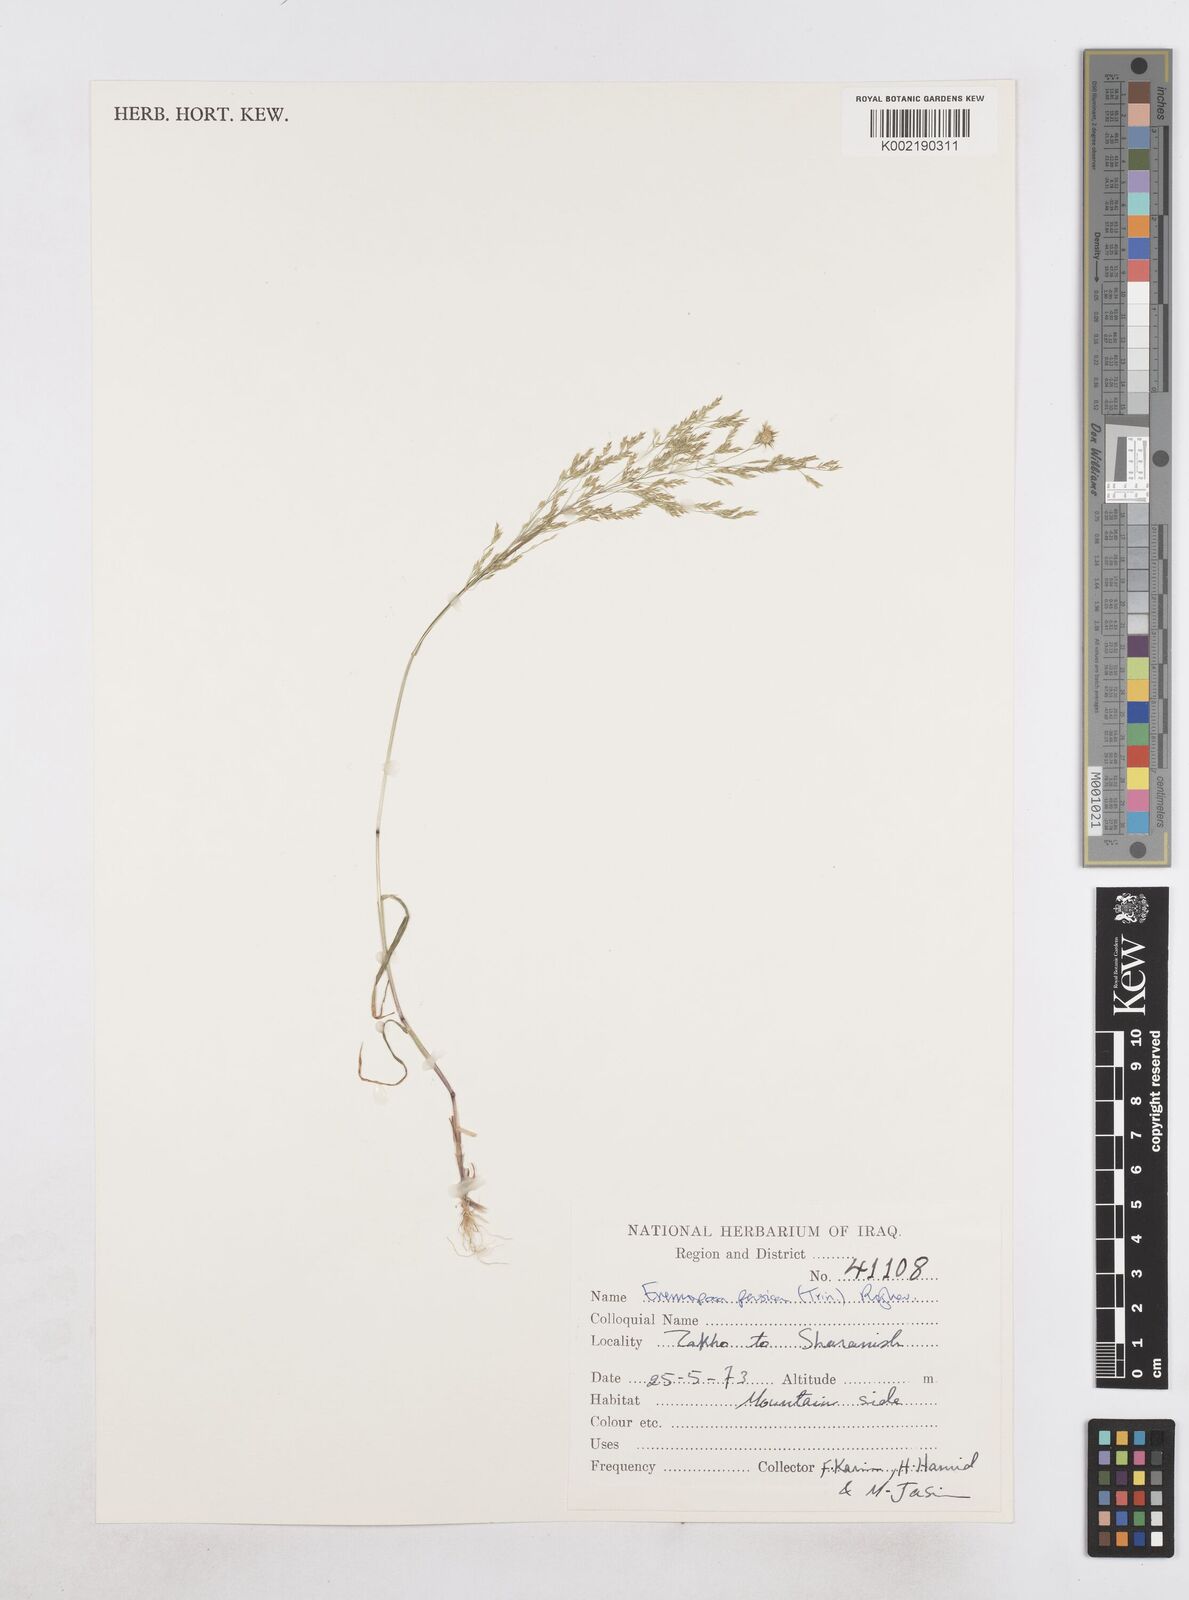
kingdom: Plantae
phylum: Tracheophyta
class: Liliopsida
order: Poales
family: Poaceae
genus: Poa
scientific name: Poa persica
